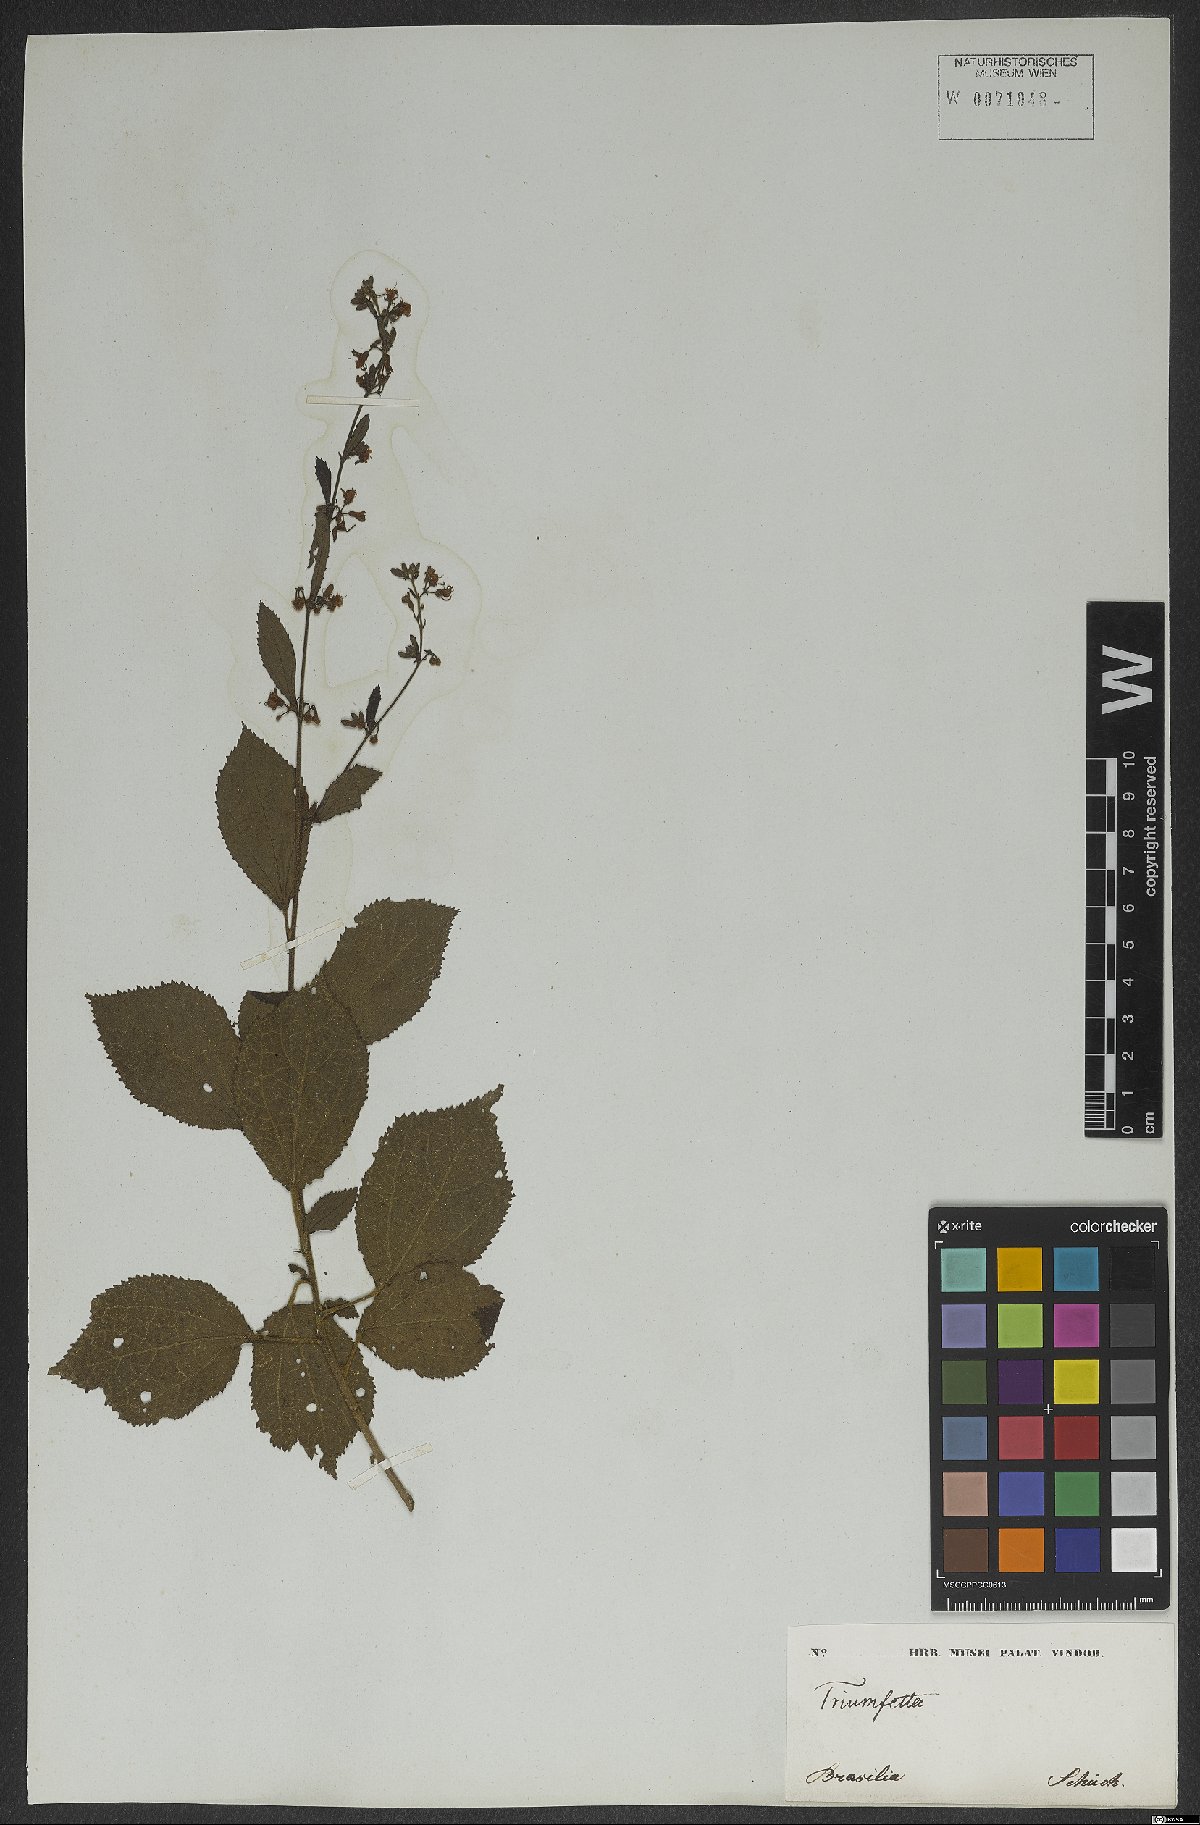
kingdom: Plantae
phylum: Tracheophyta
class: Magnoliopsida
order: Malvales
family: Malvaceae
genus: Triumfetta
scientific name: Triumfetta
